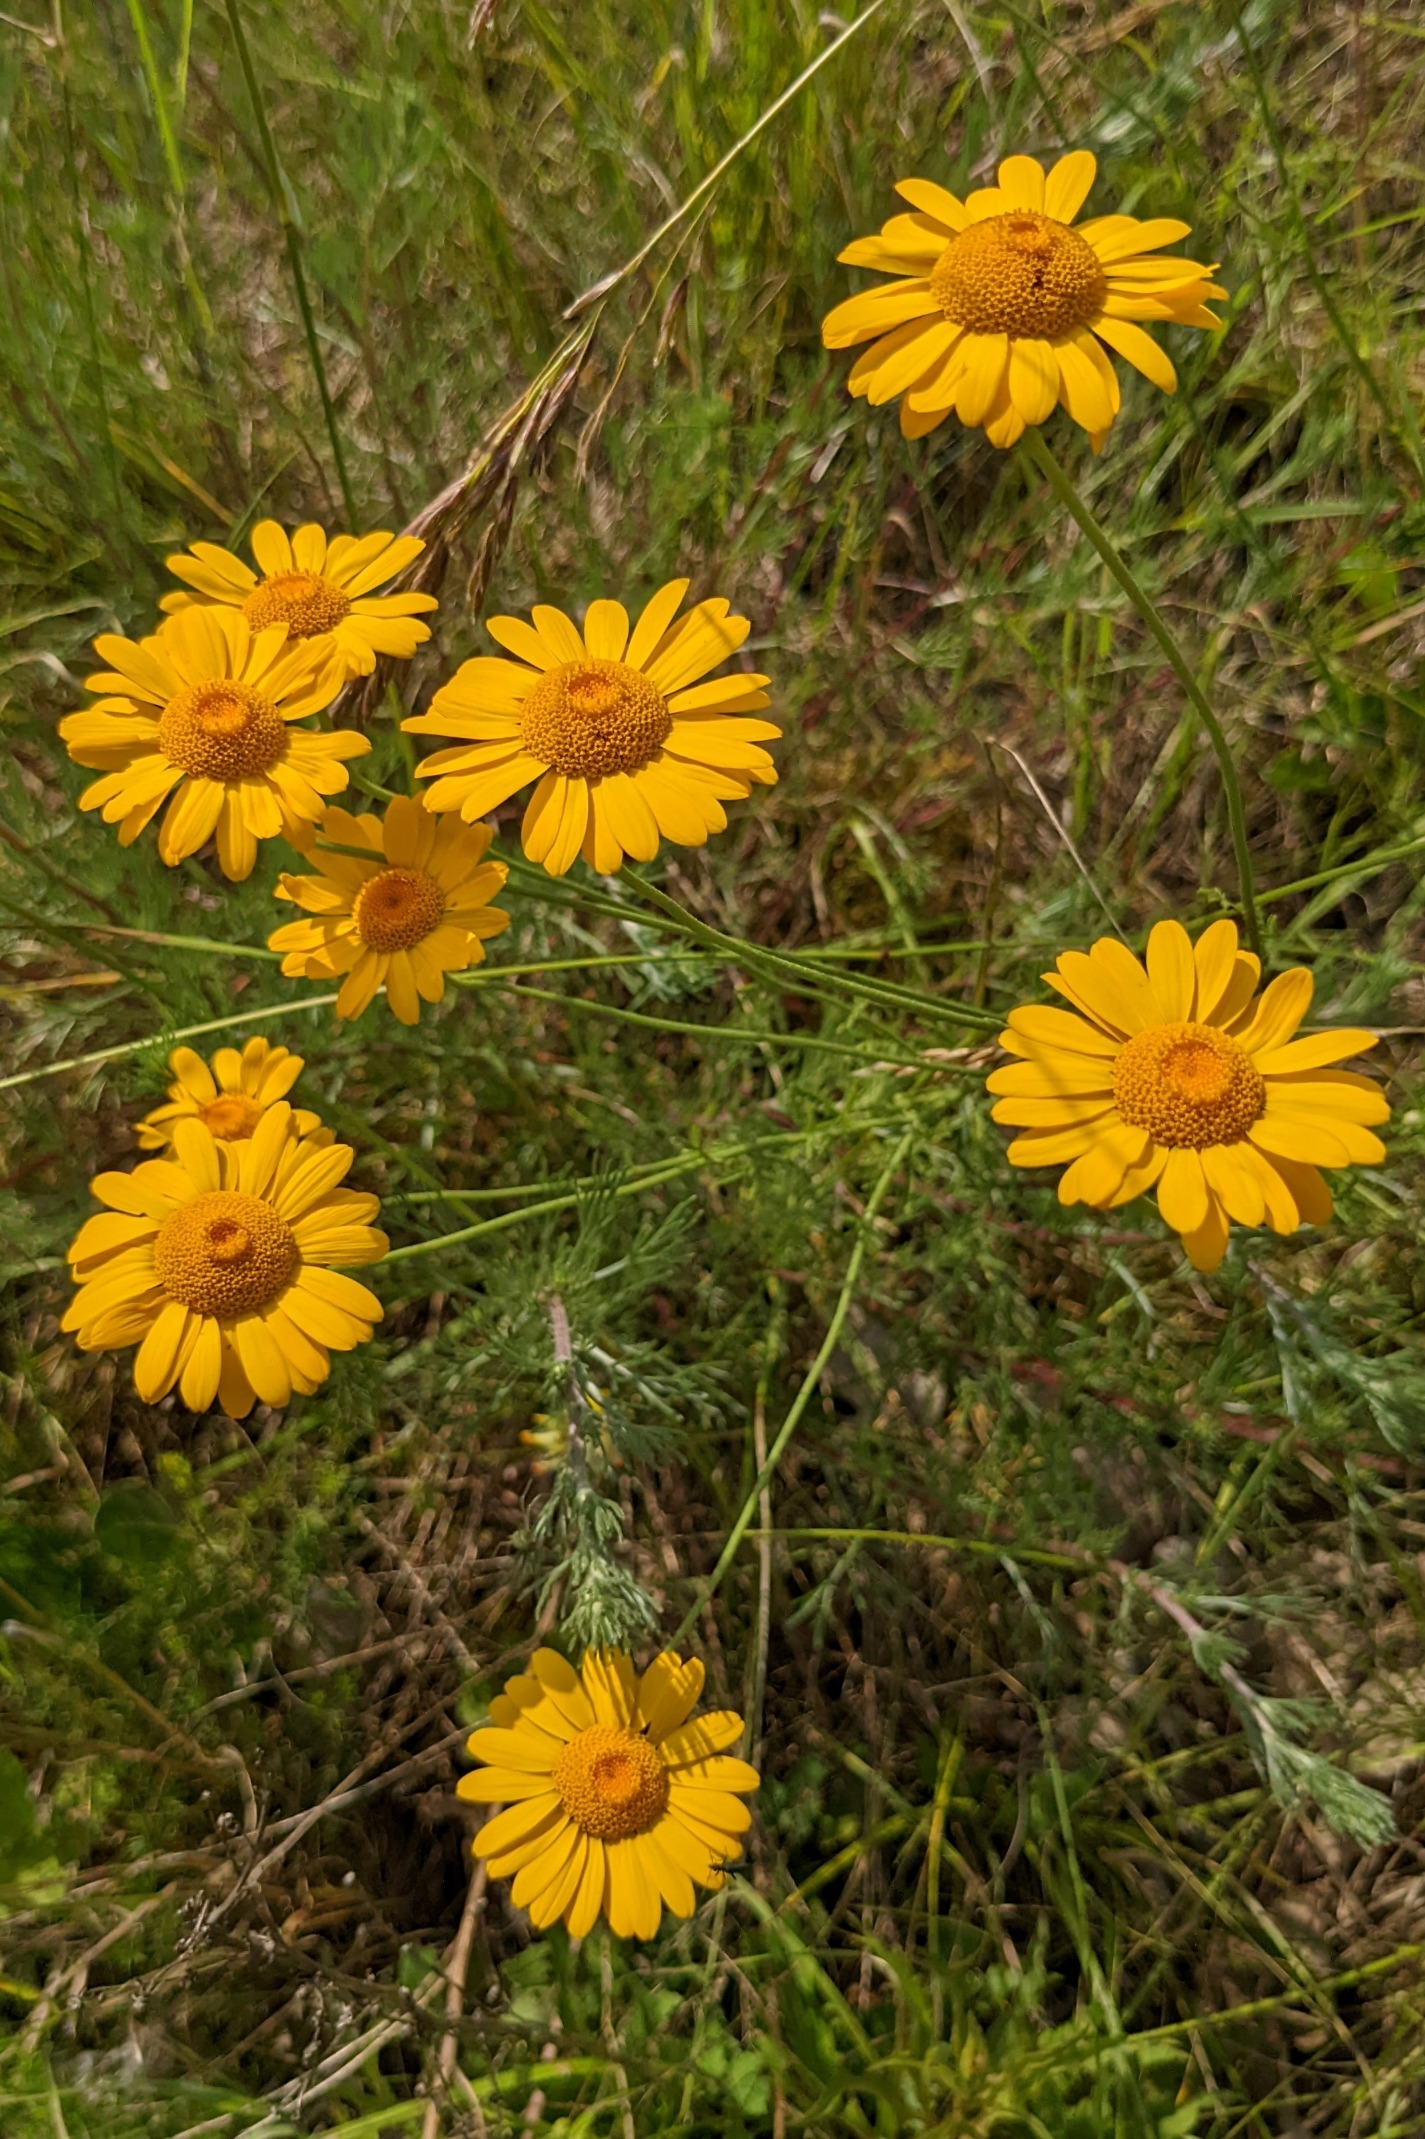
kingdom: Plantae
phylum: Tracheophyta
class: Magnoliopsida
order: Asterales
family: Asteraceae
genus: Cota
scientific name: Cota tinctoria
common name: Farve-gåseurt
